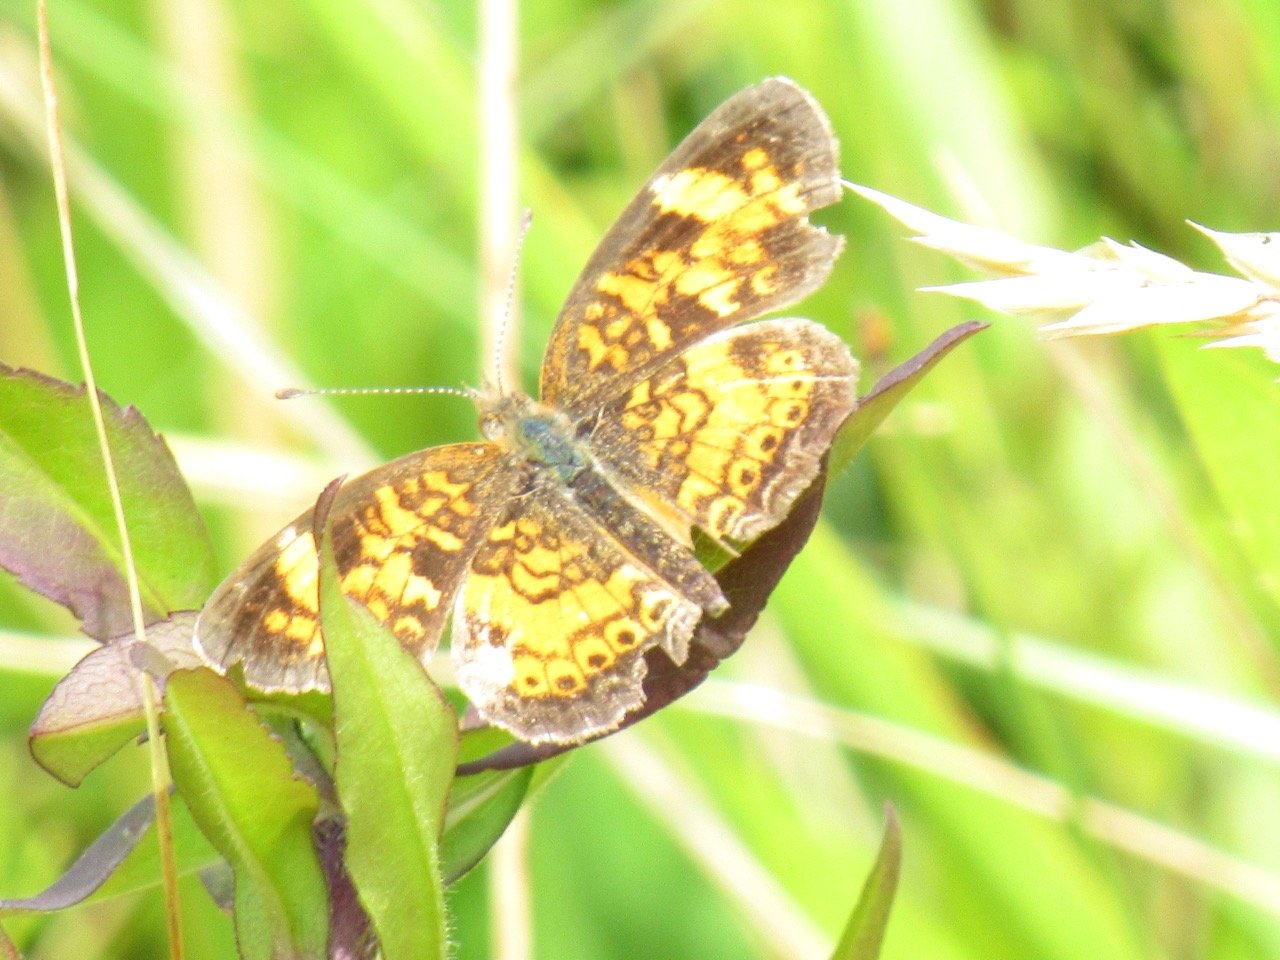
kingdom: Animalia
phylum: Arthropoda
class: Insecta
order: Lepidoptera
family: Nymphalidae
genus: Phyciodes
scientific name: Phyciodes tharos
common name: Pearl Crescent
